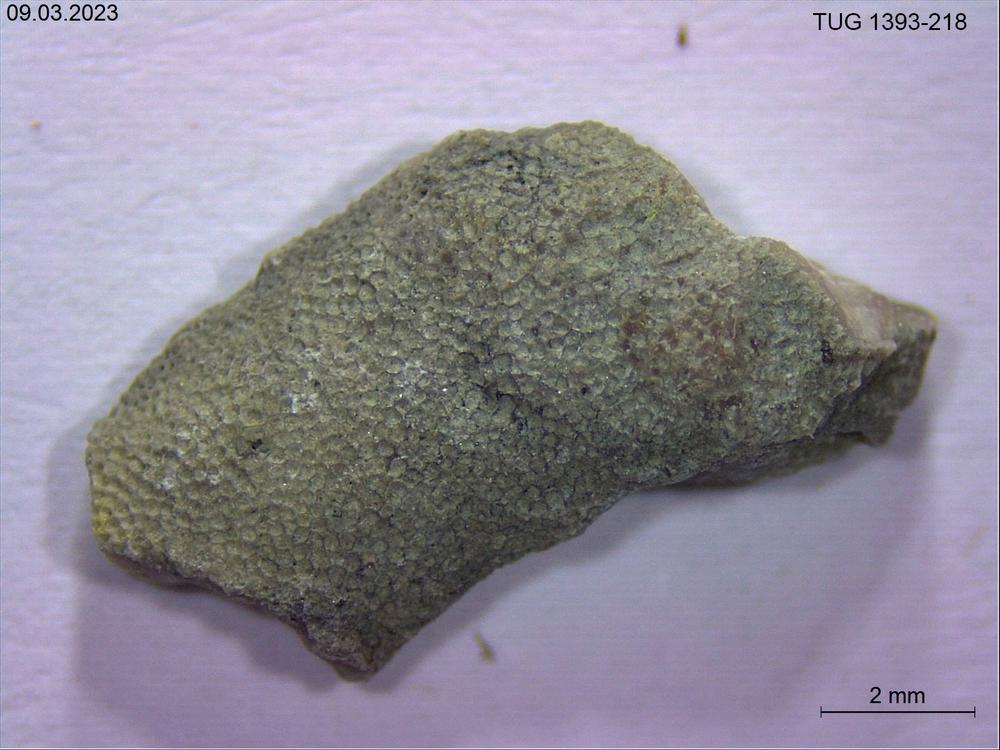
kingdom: Animalia
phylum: Bryozoa
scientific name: Bryozoa
